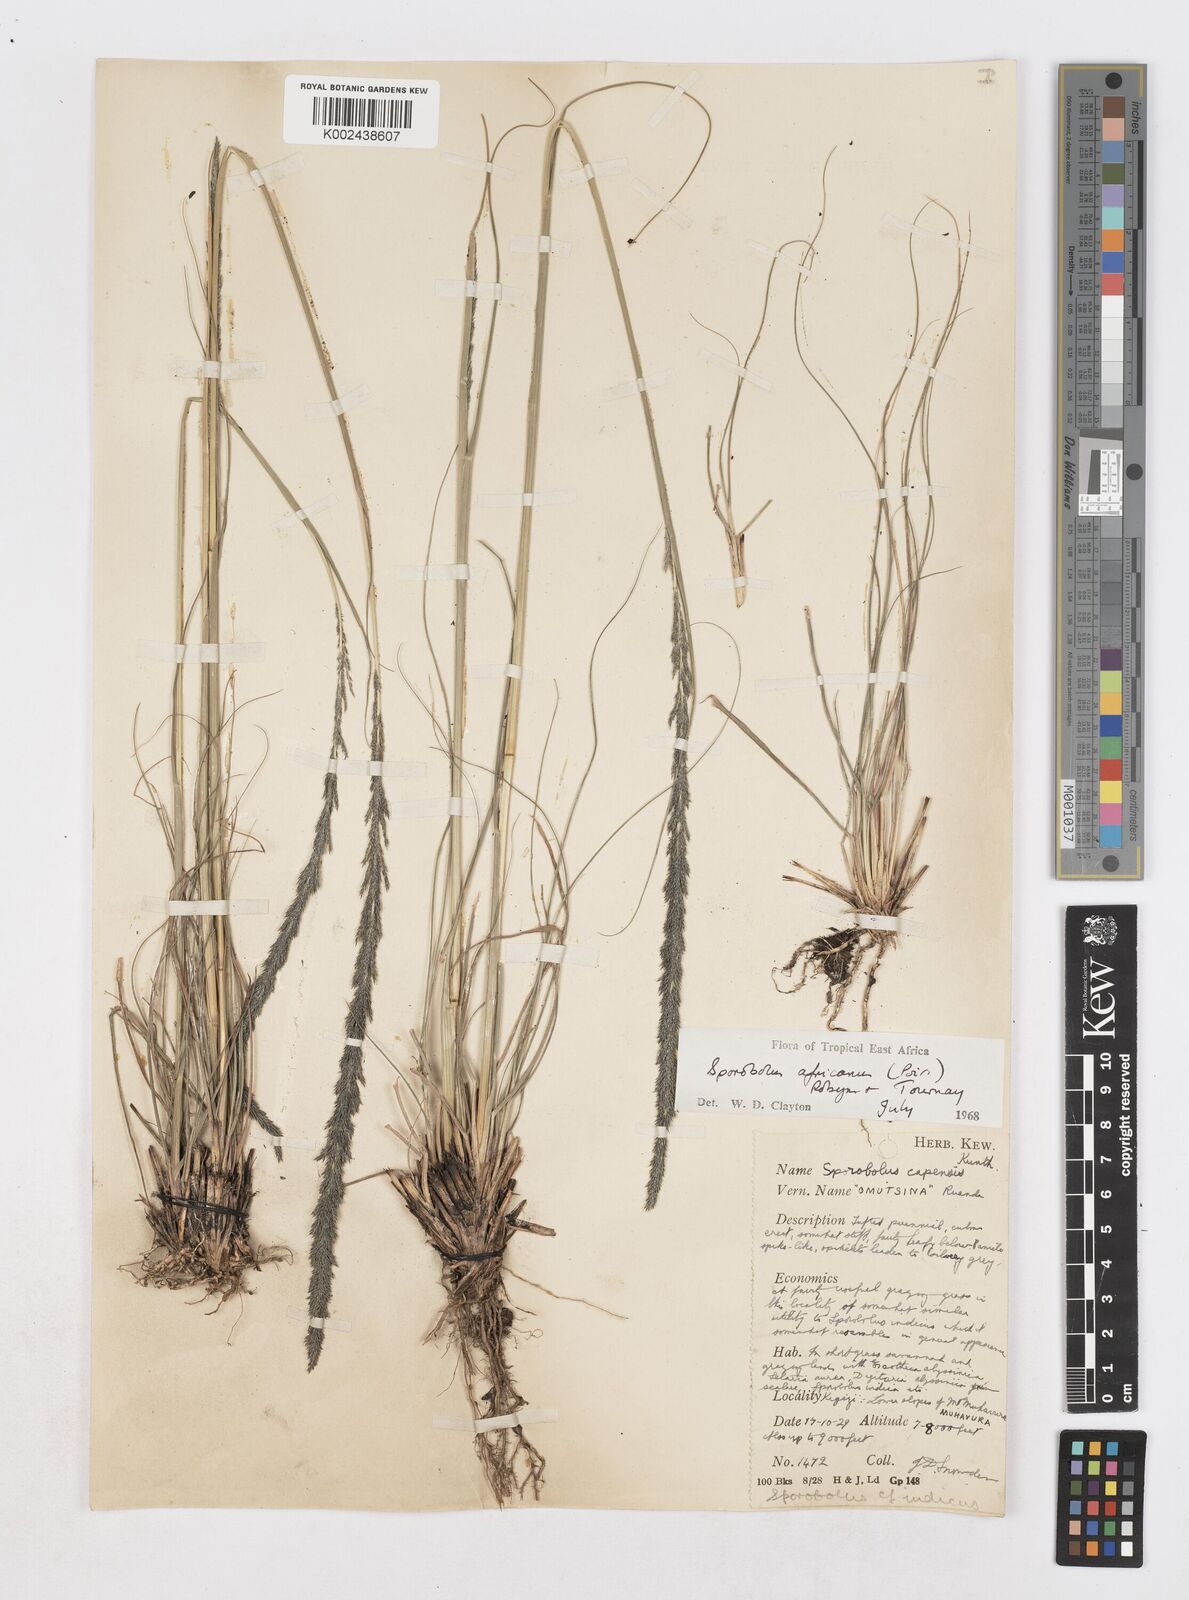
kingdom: Plantae
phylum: Tracheophyta
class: Liliopsida
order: Poales
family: Poaceae
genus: Sporobolus
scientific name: Sporobolus africanus
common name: African dropseed
